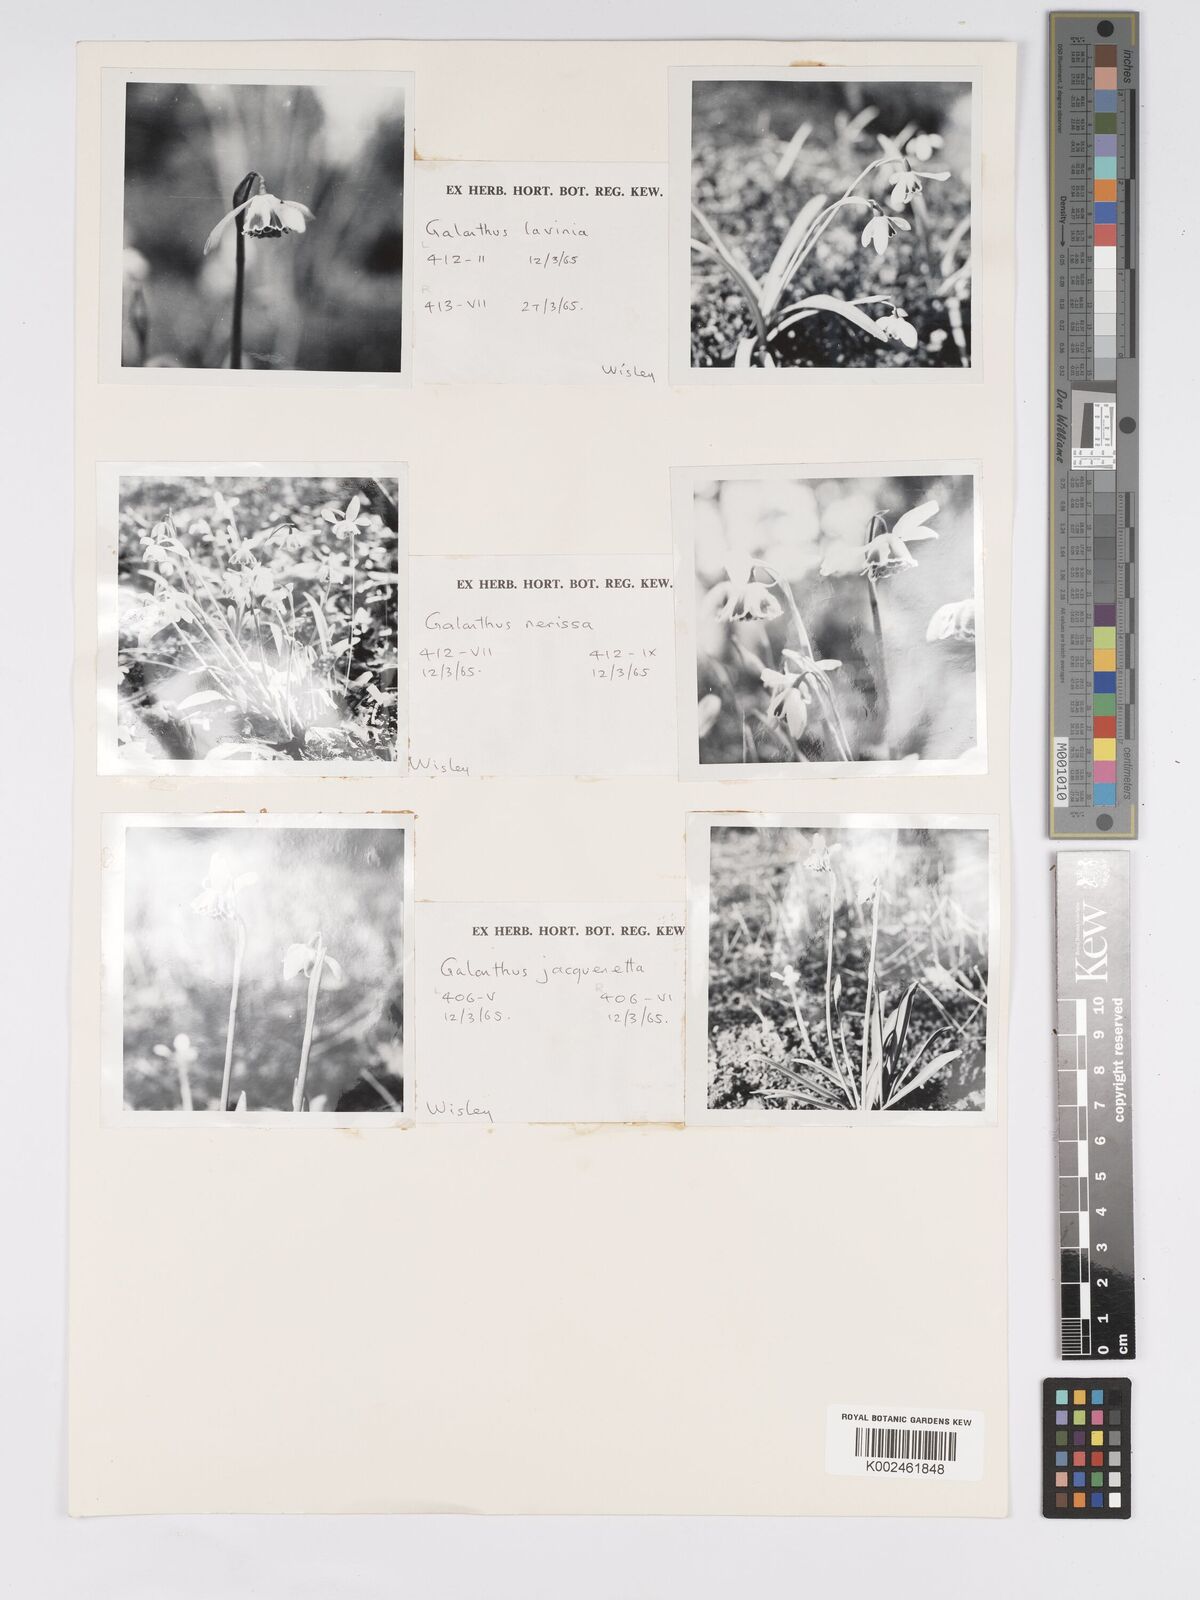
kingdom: Plantae
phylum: Tracheophyta
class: Liliopsida
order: Asparagales
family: Amaryllidaceae
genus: Galanthus
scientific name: Galanthus
